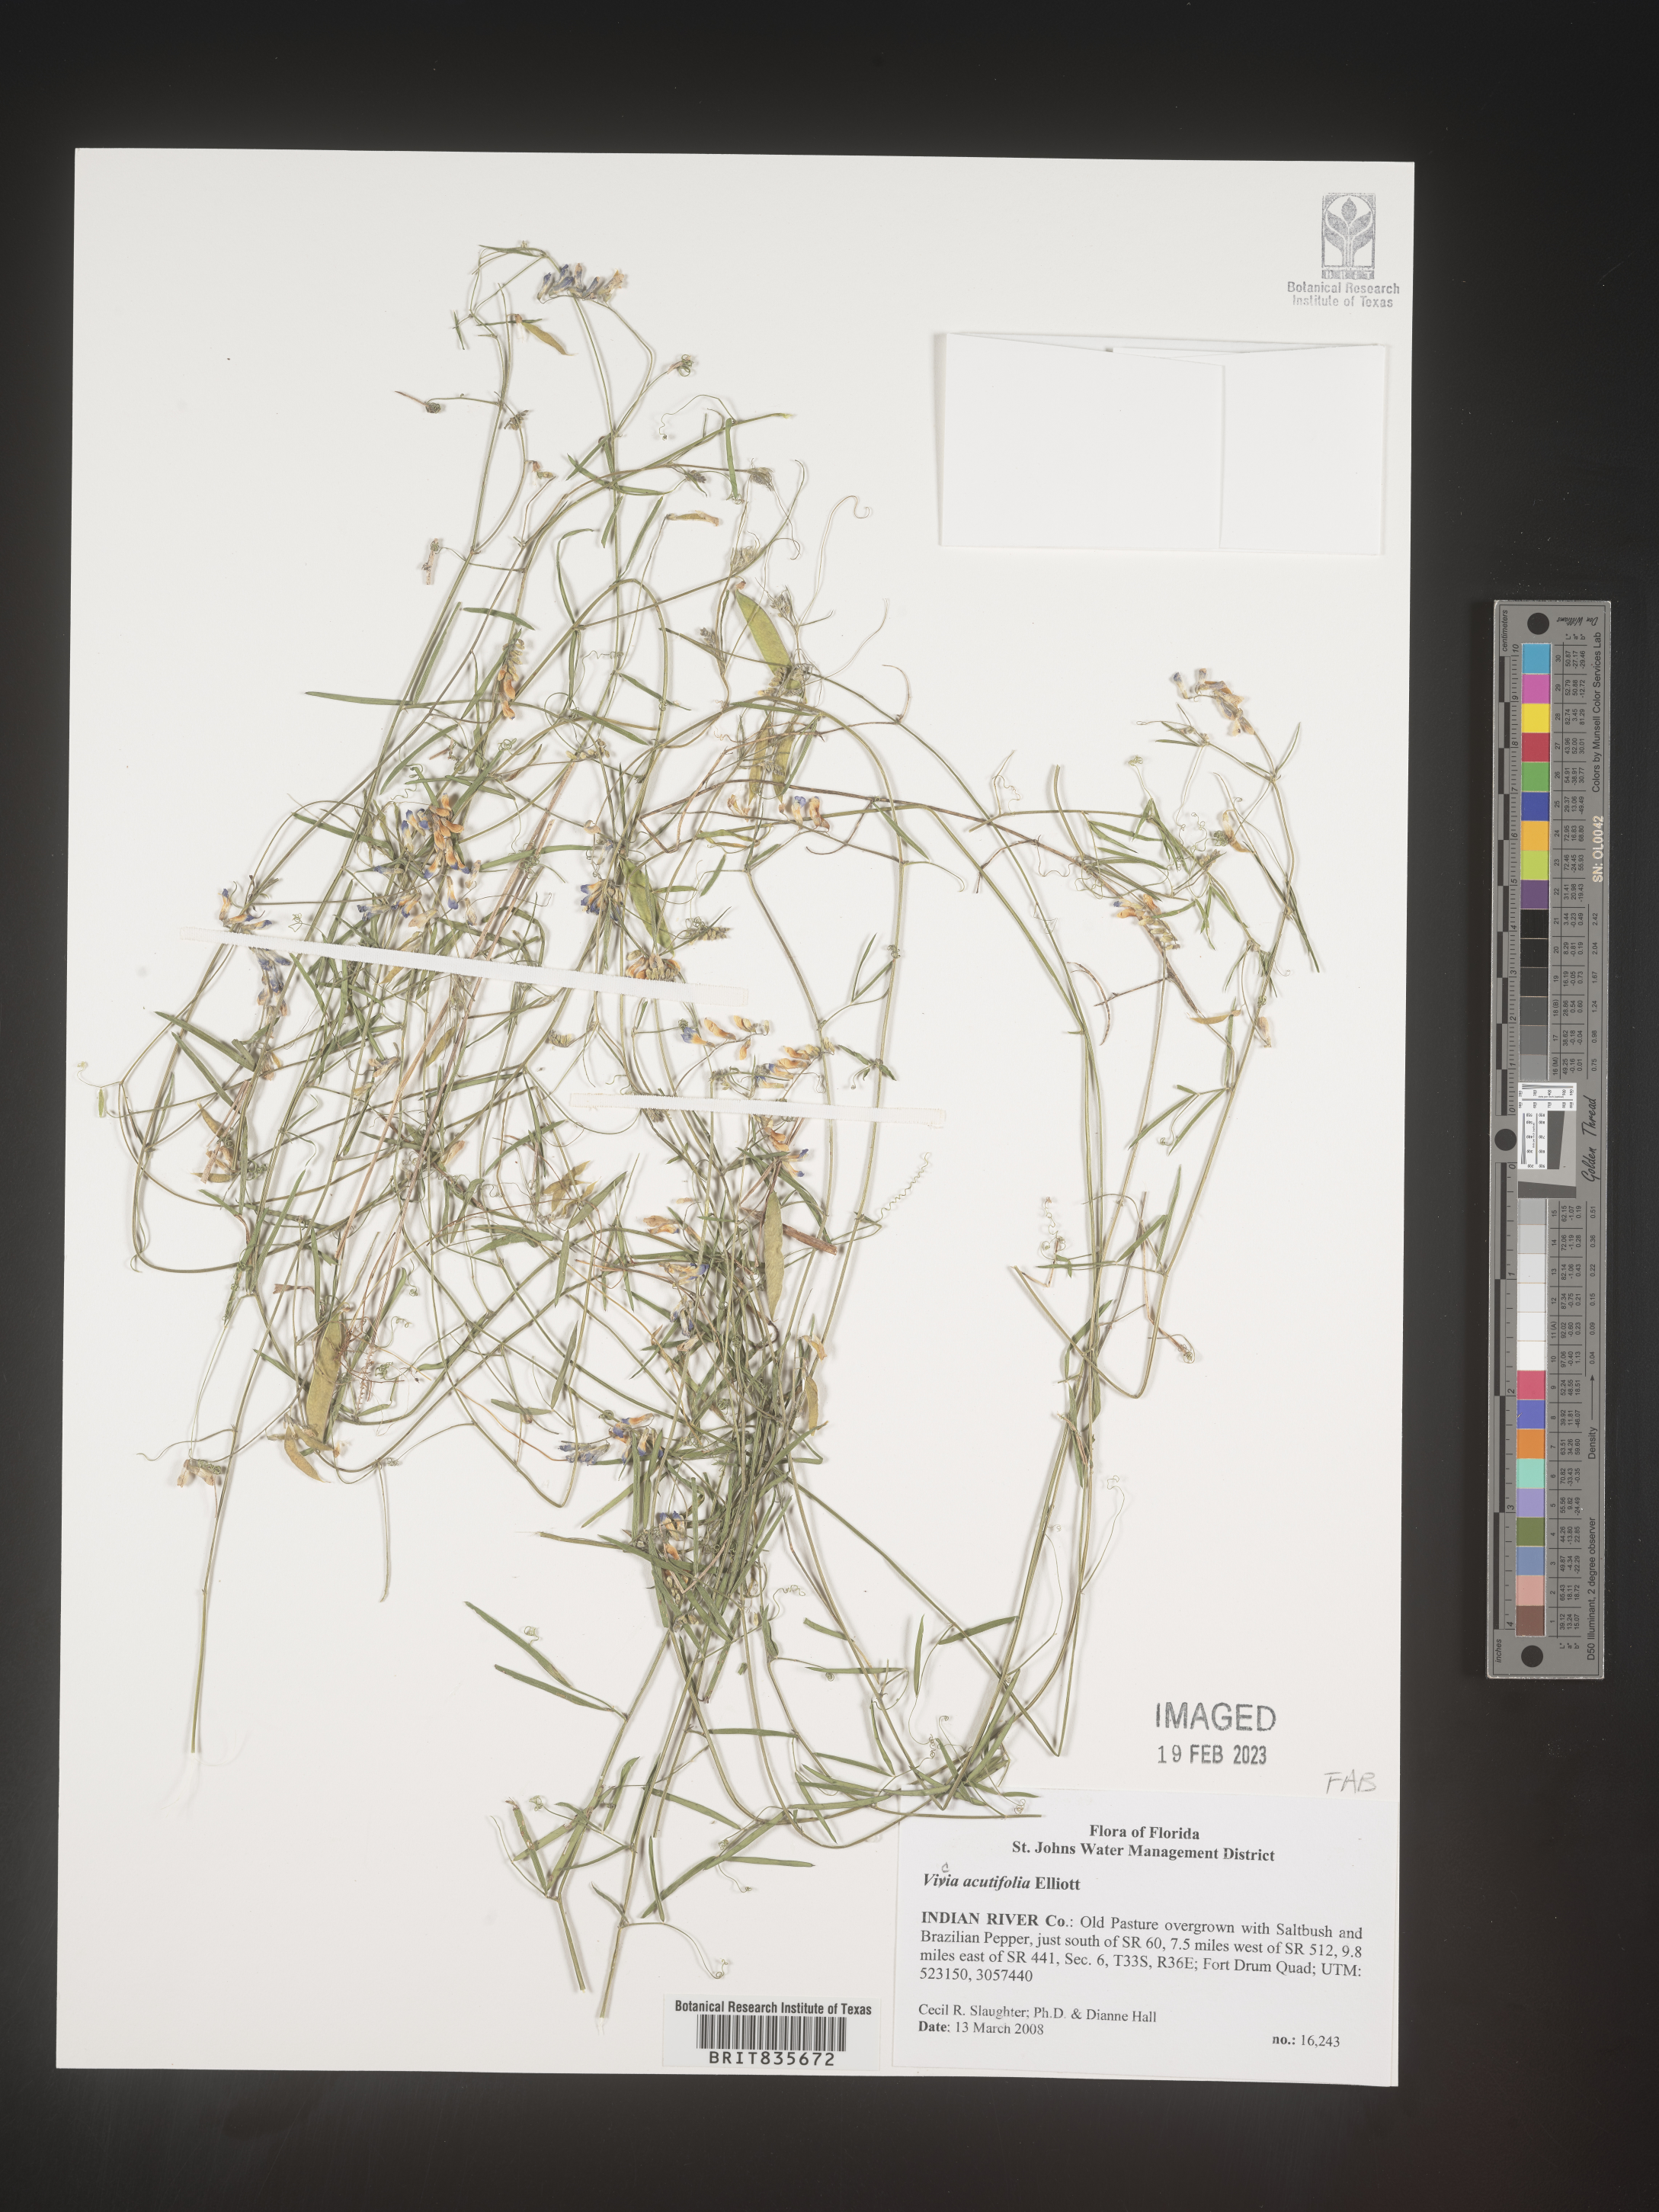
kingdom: Plantae
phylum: Tracheophyta
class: Magnoliopsida
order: Fabales
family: Fabaceae
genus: Vicia
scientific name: Vicia acutifolia
